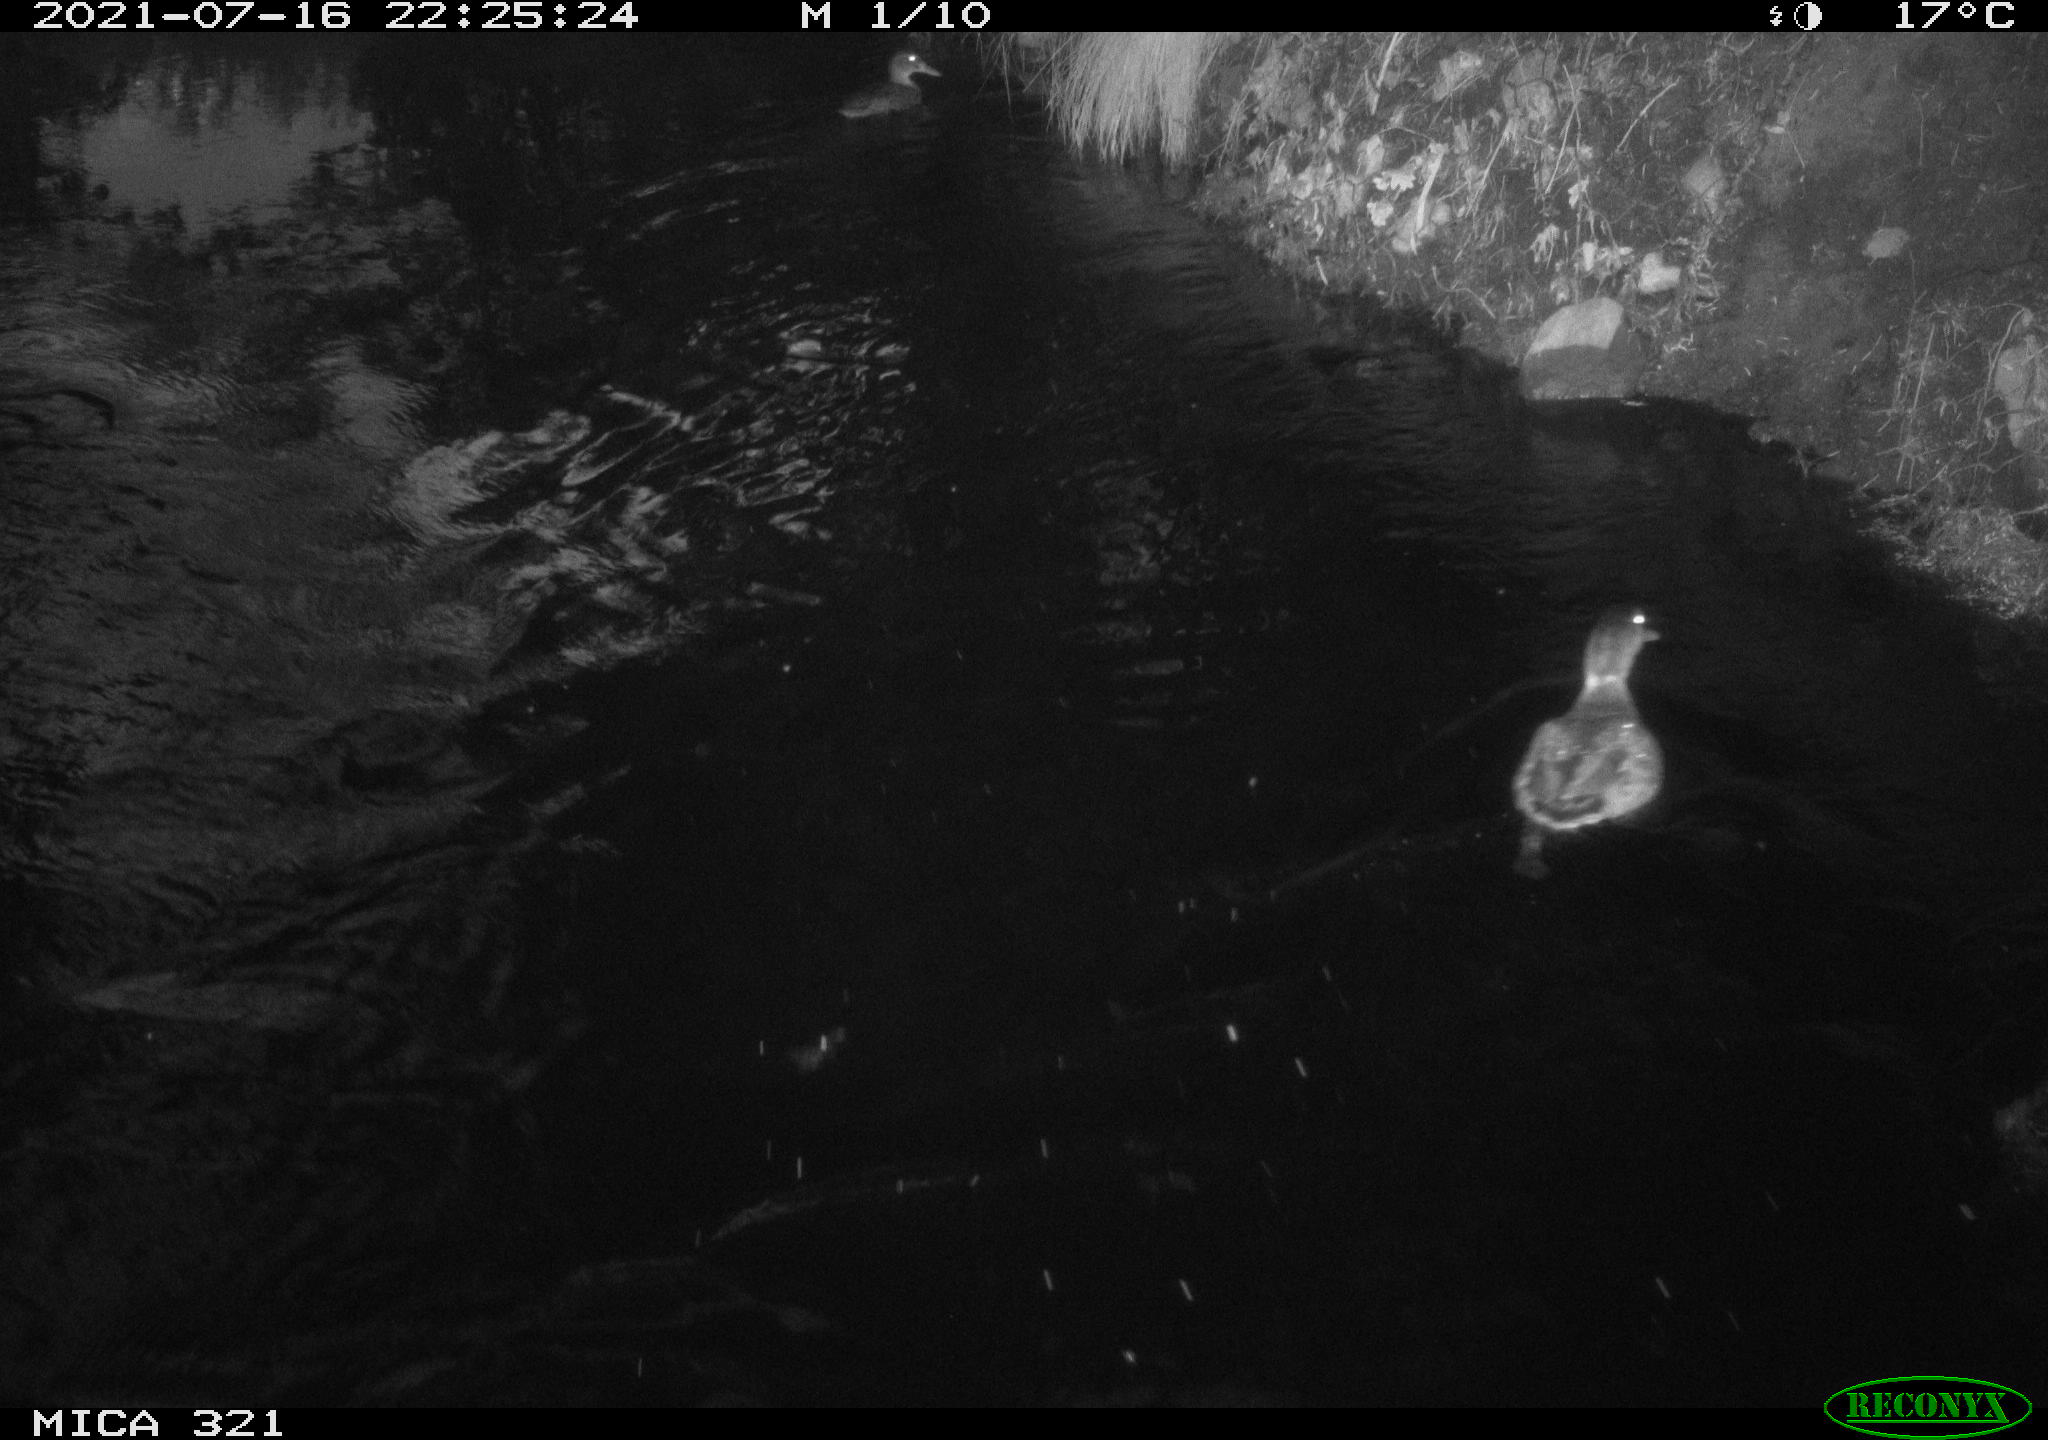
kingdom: Animalia
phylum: Chordata
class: Aves
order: Anseriformes
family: Anatidae
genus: Anas
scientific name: Anas platyrhynchos
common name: Mallard
